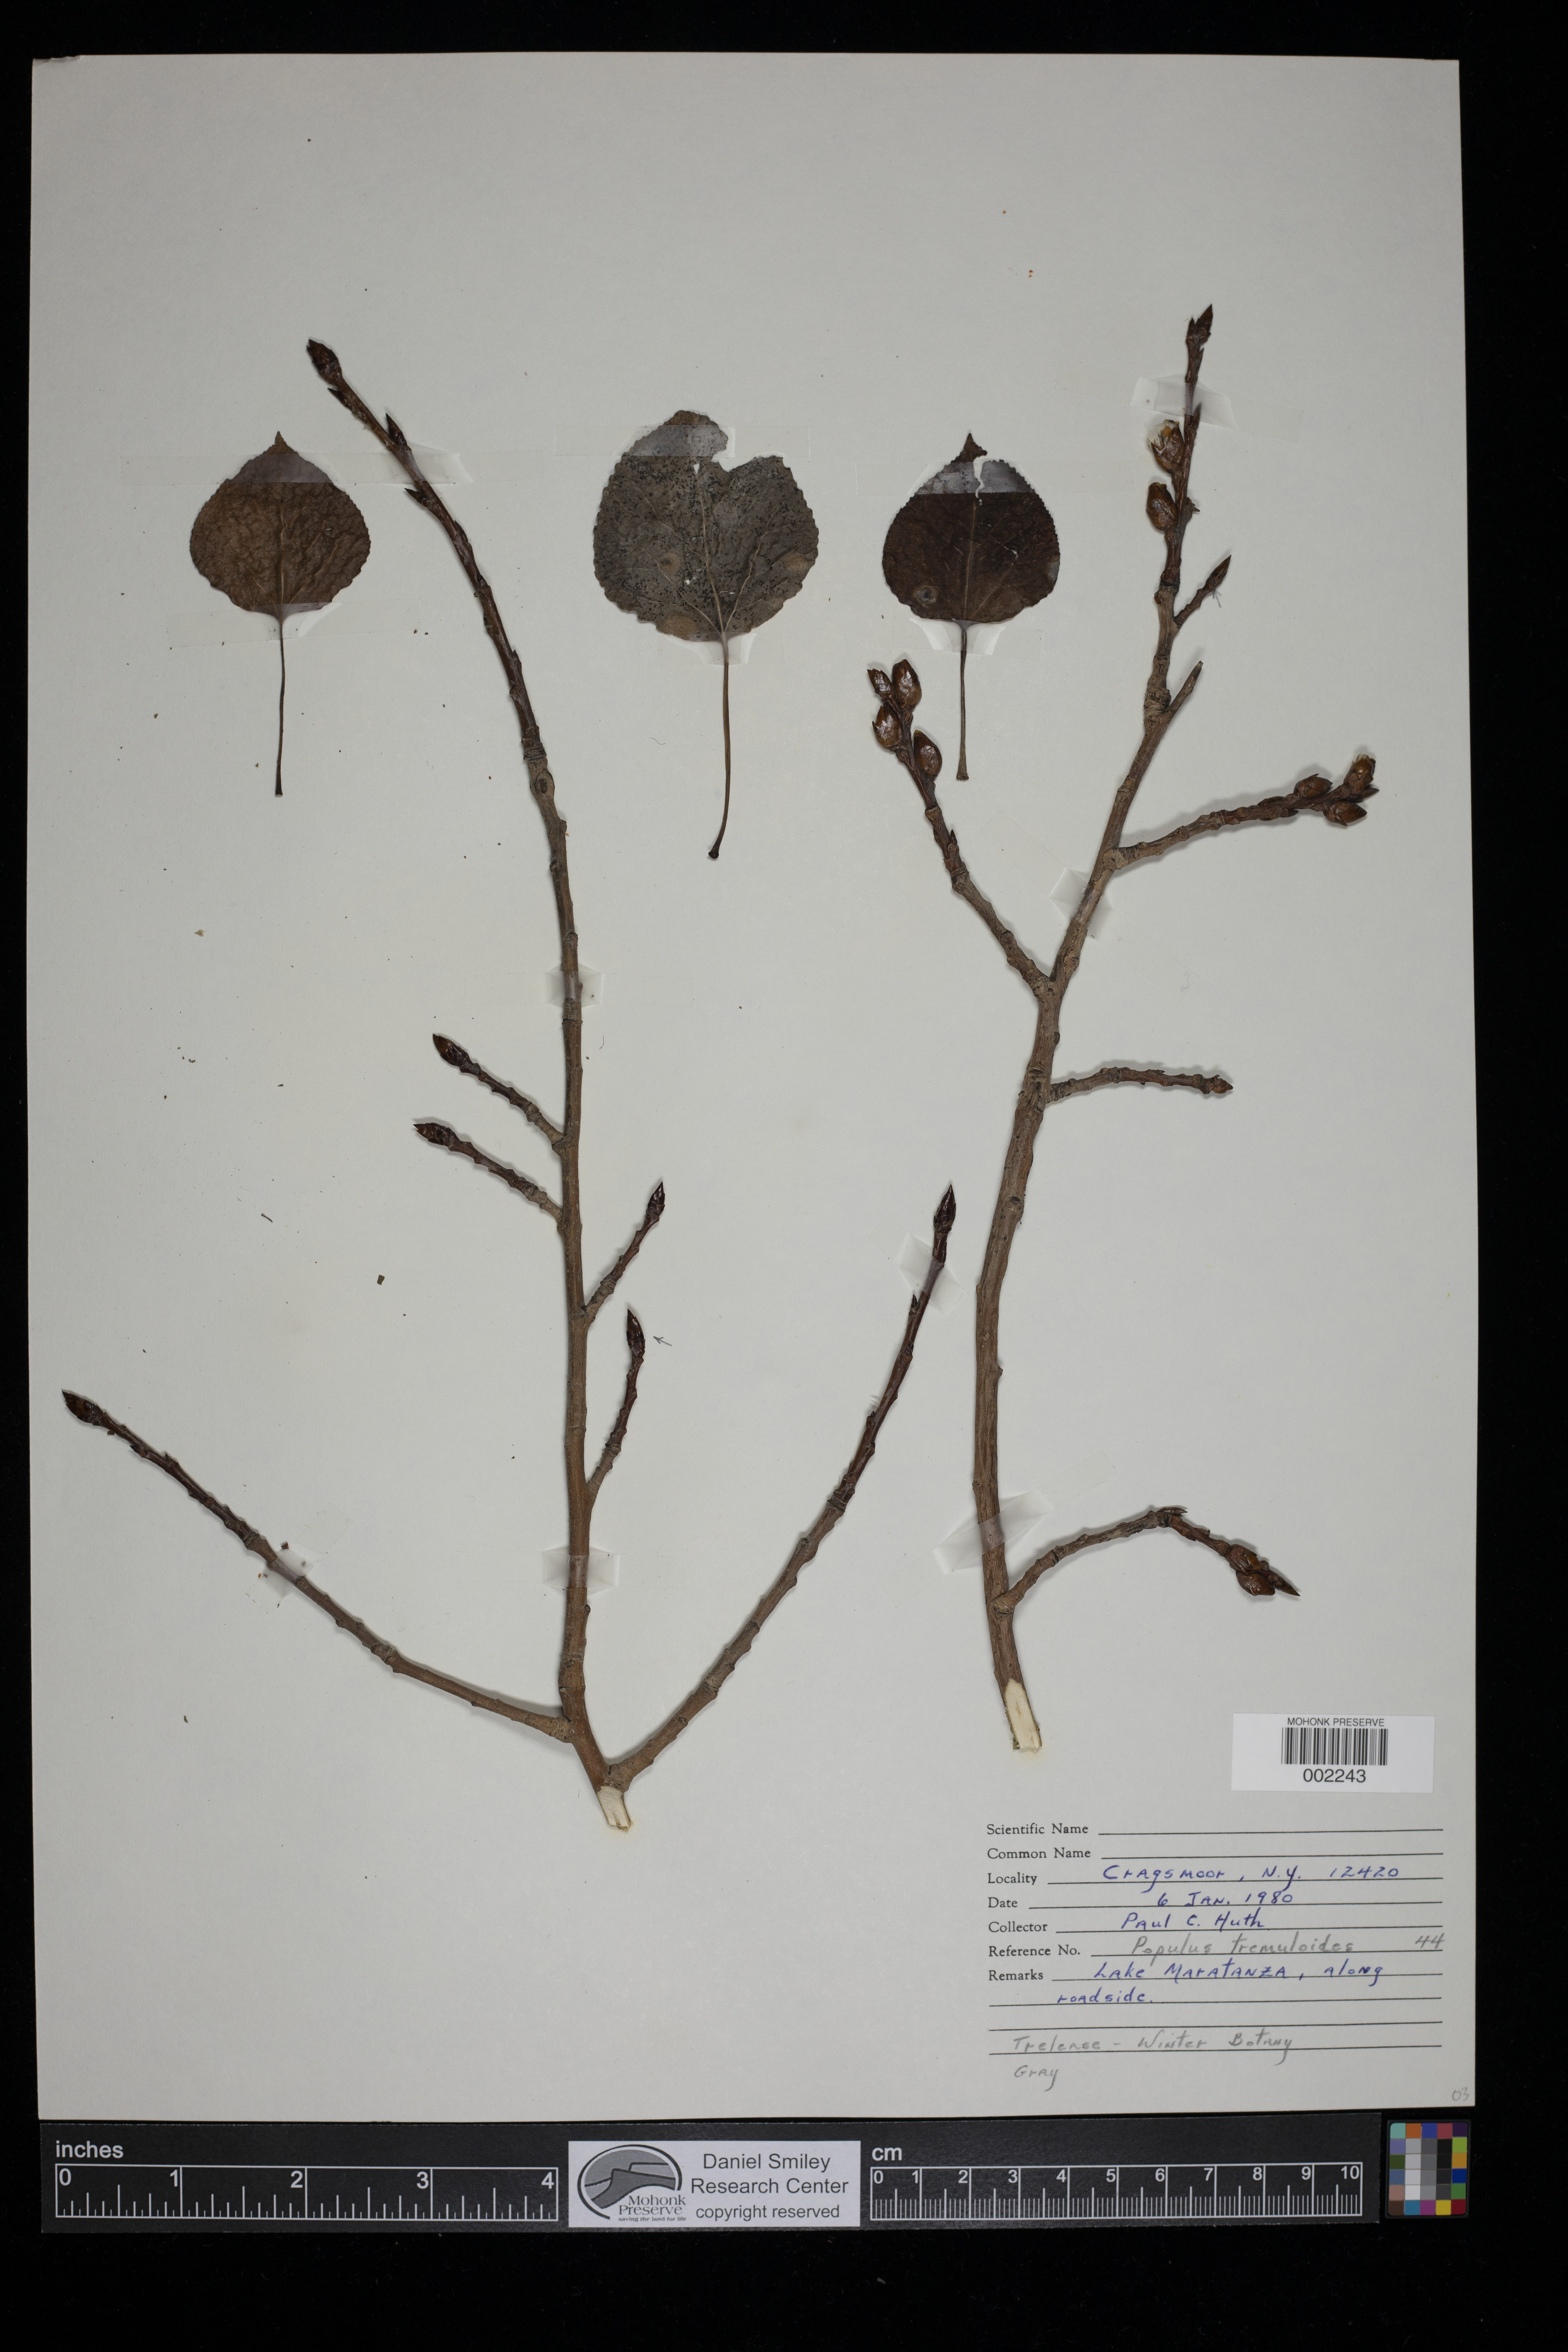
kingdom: Plantae
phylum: Tracheophyta
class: Magnoliopsida
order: Malpighiales
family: Salicaceae
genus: Populus
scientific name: Populus tremuloides
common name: Quaking aspen
